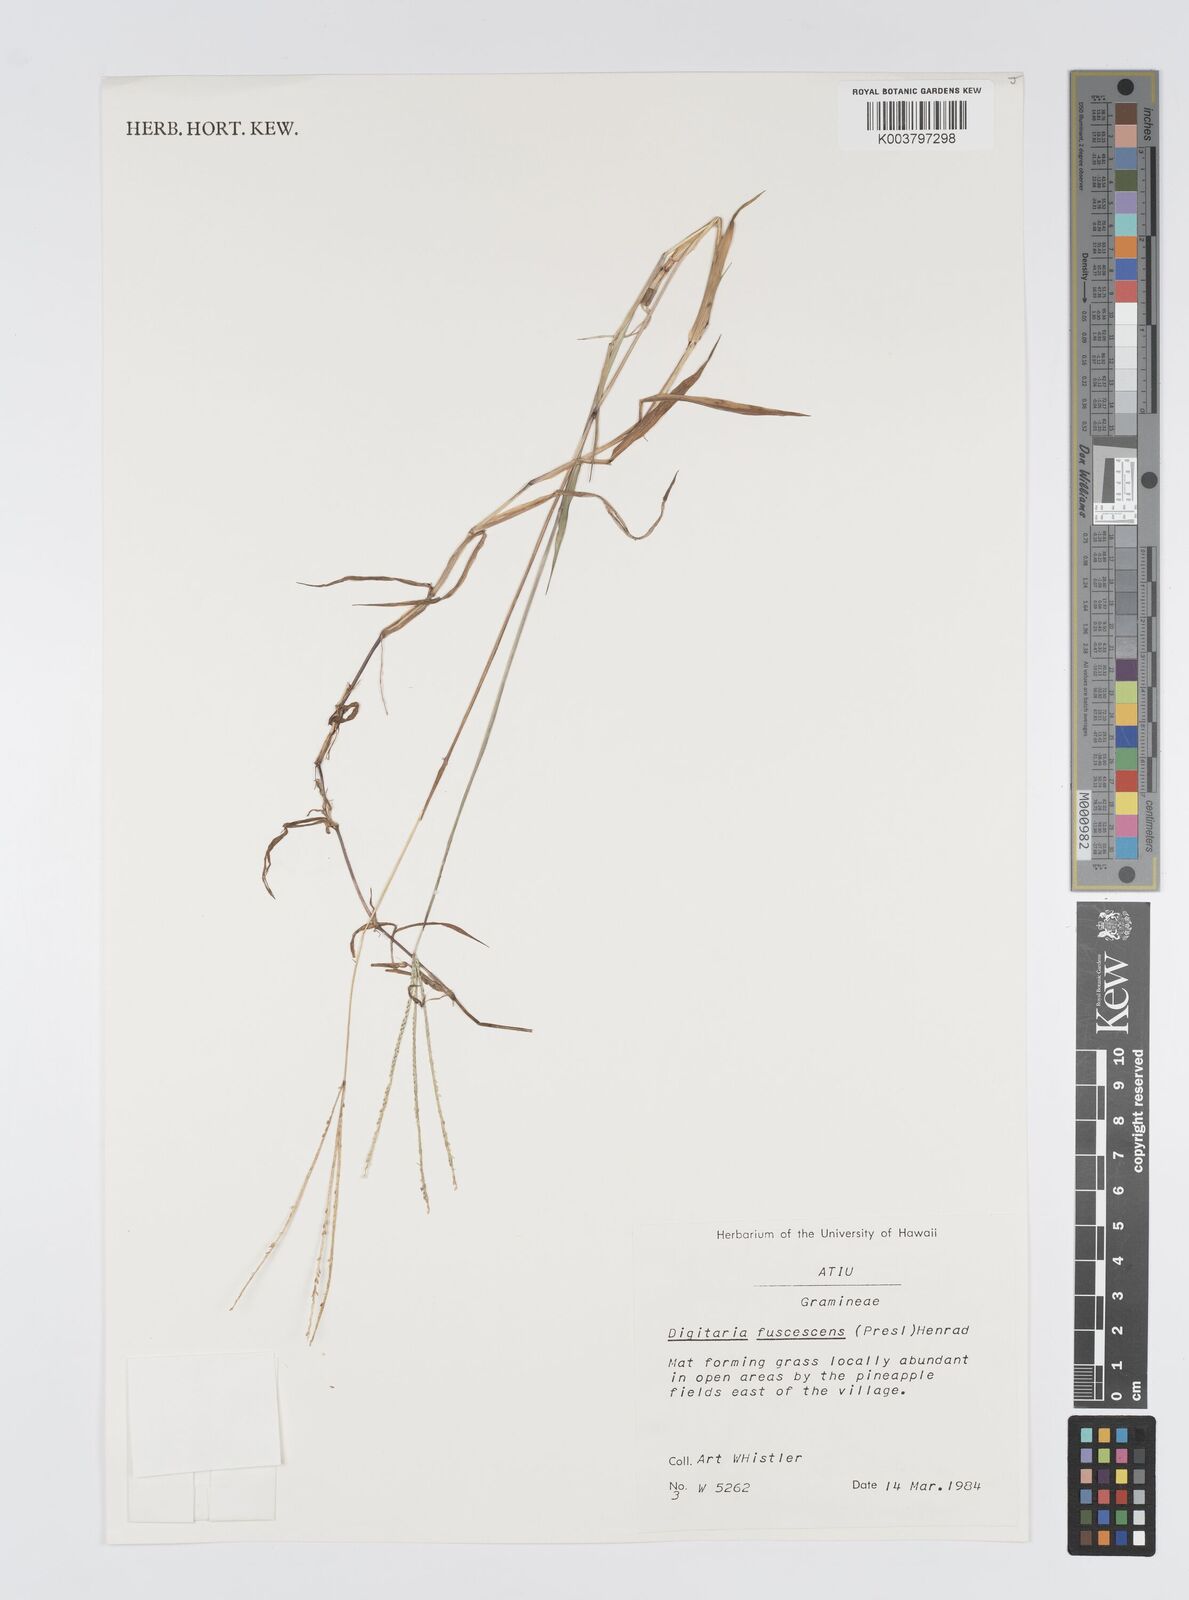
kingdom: Plantae
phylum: Tracheophyta
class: Liliopsida
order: Poales
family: Poaceae
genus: Digitaria
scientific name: Digitaria fuscescens
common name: Yellow crabgrass
